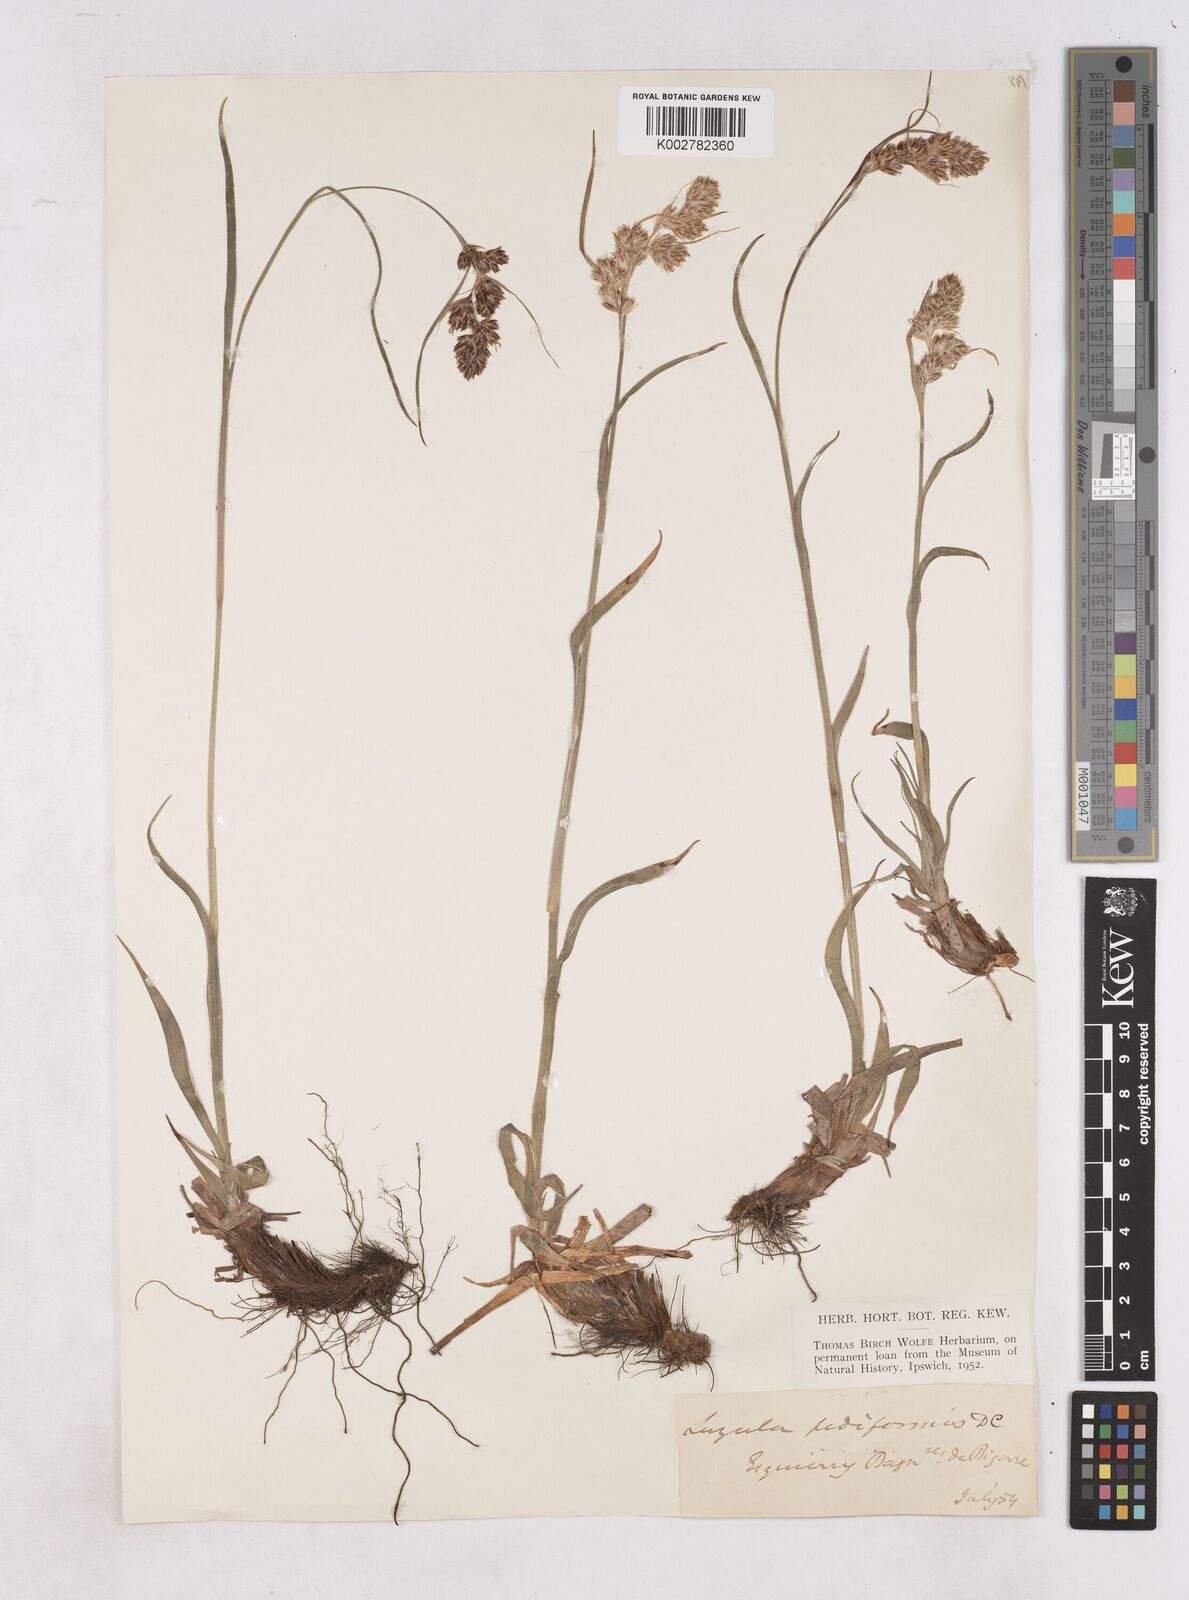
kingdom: Plantae
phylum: Tracheophyta
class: Liliopsida
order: Poales
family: Juncaceae
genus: Luzula
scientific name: Luzula pediformis
